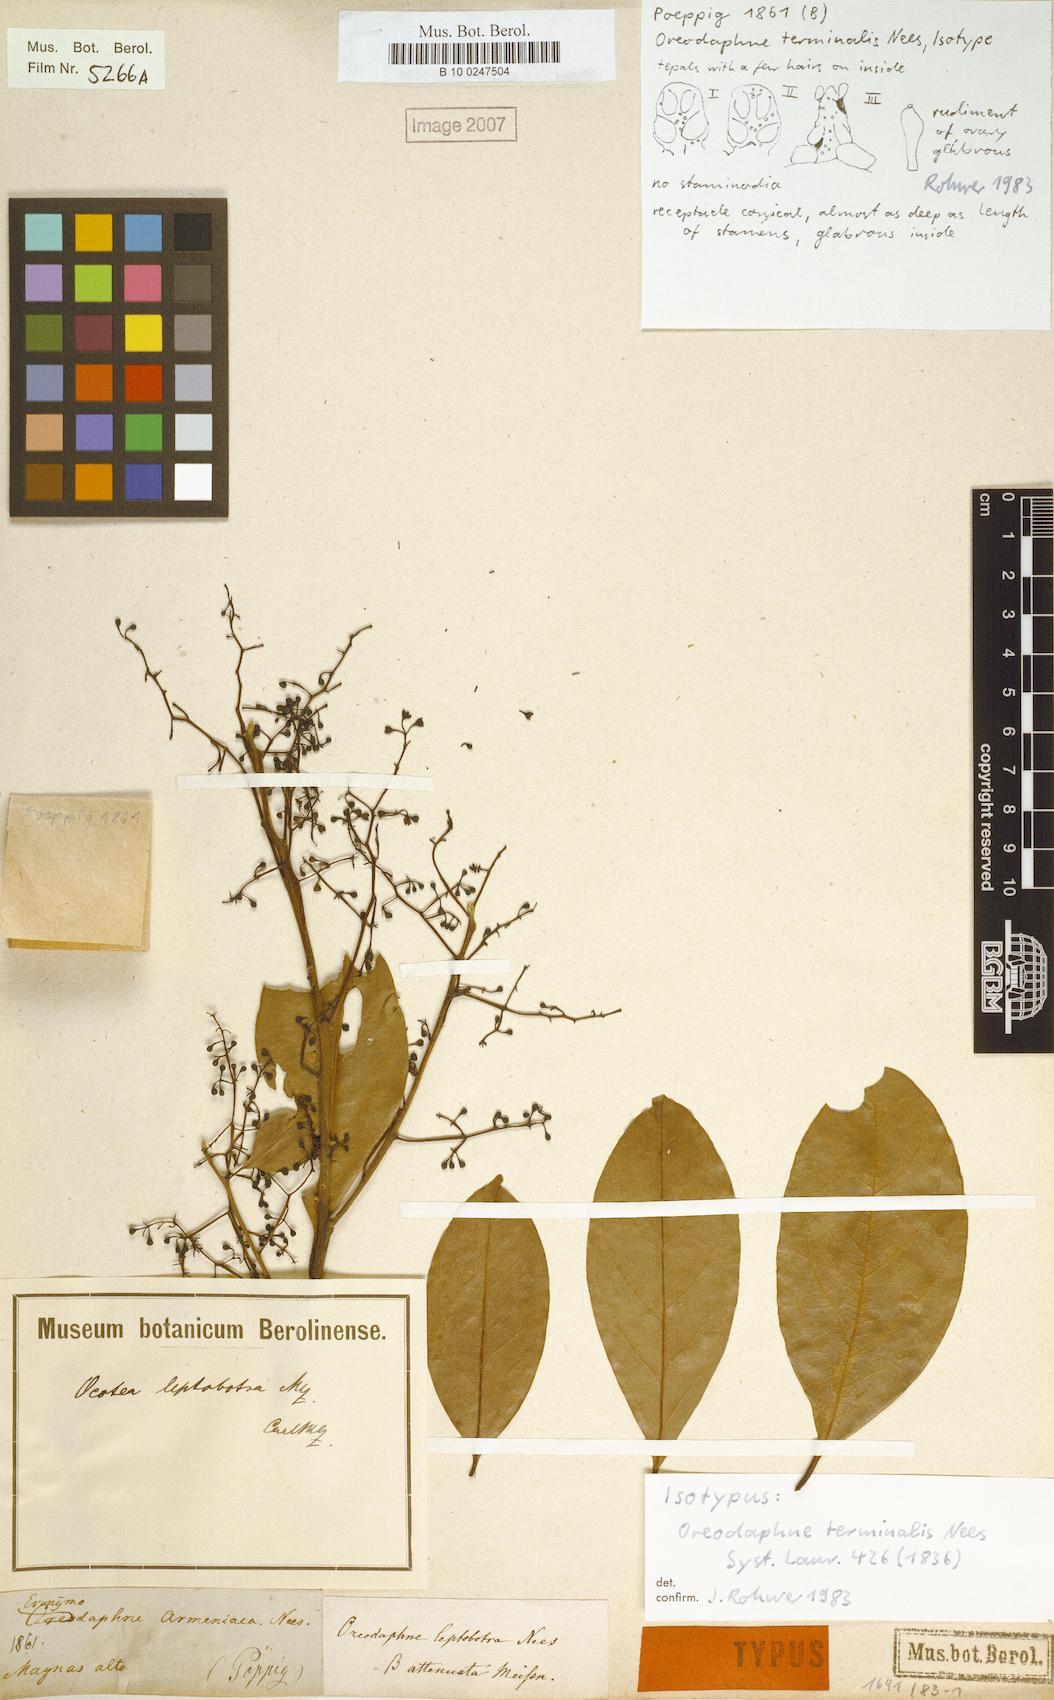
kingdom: Plantae
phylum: Tracheophyta
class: Magnoliopsida
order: Laurales
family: Lauraceae
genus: Ocotea
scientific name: Ocotea leptobotra
